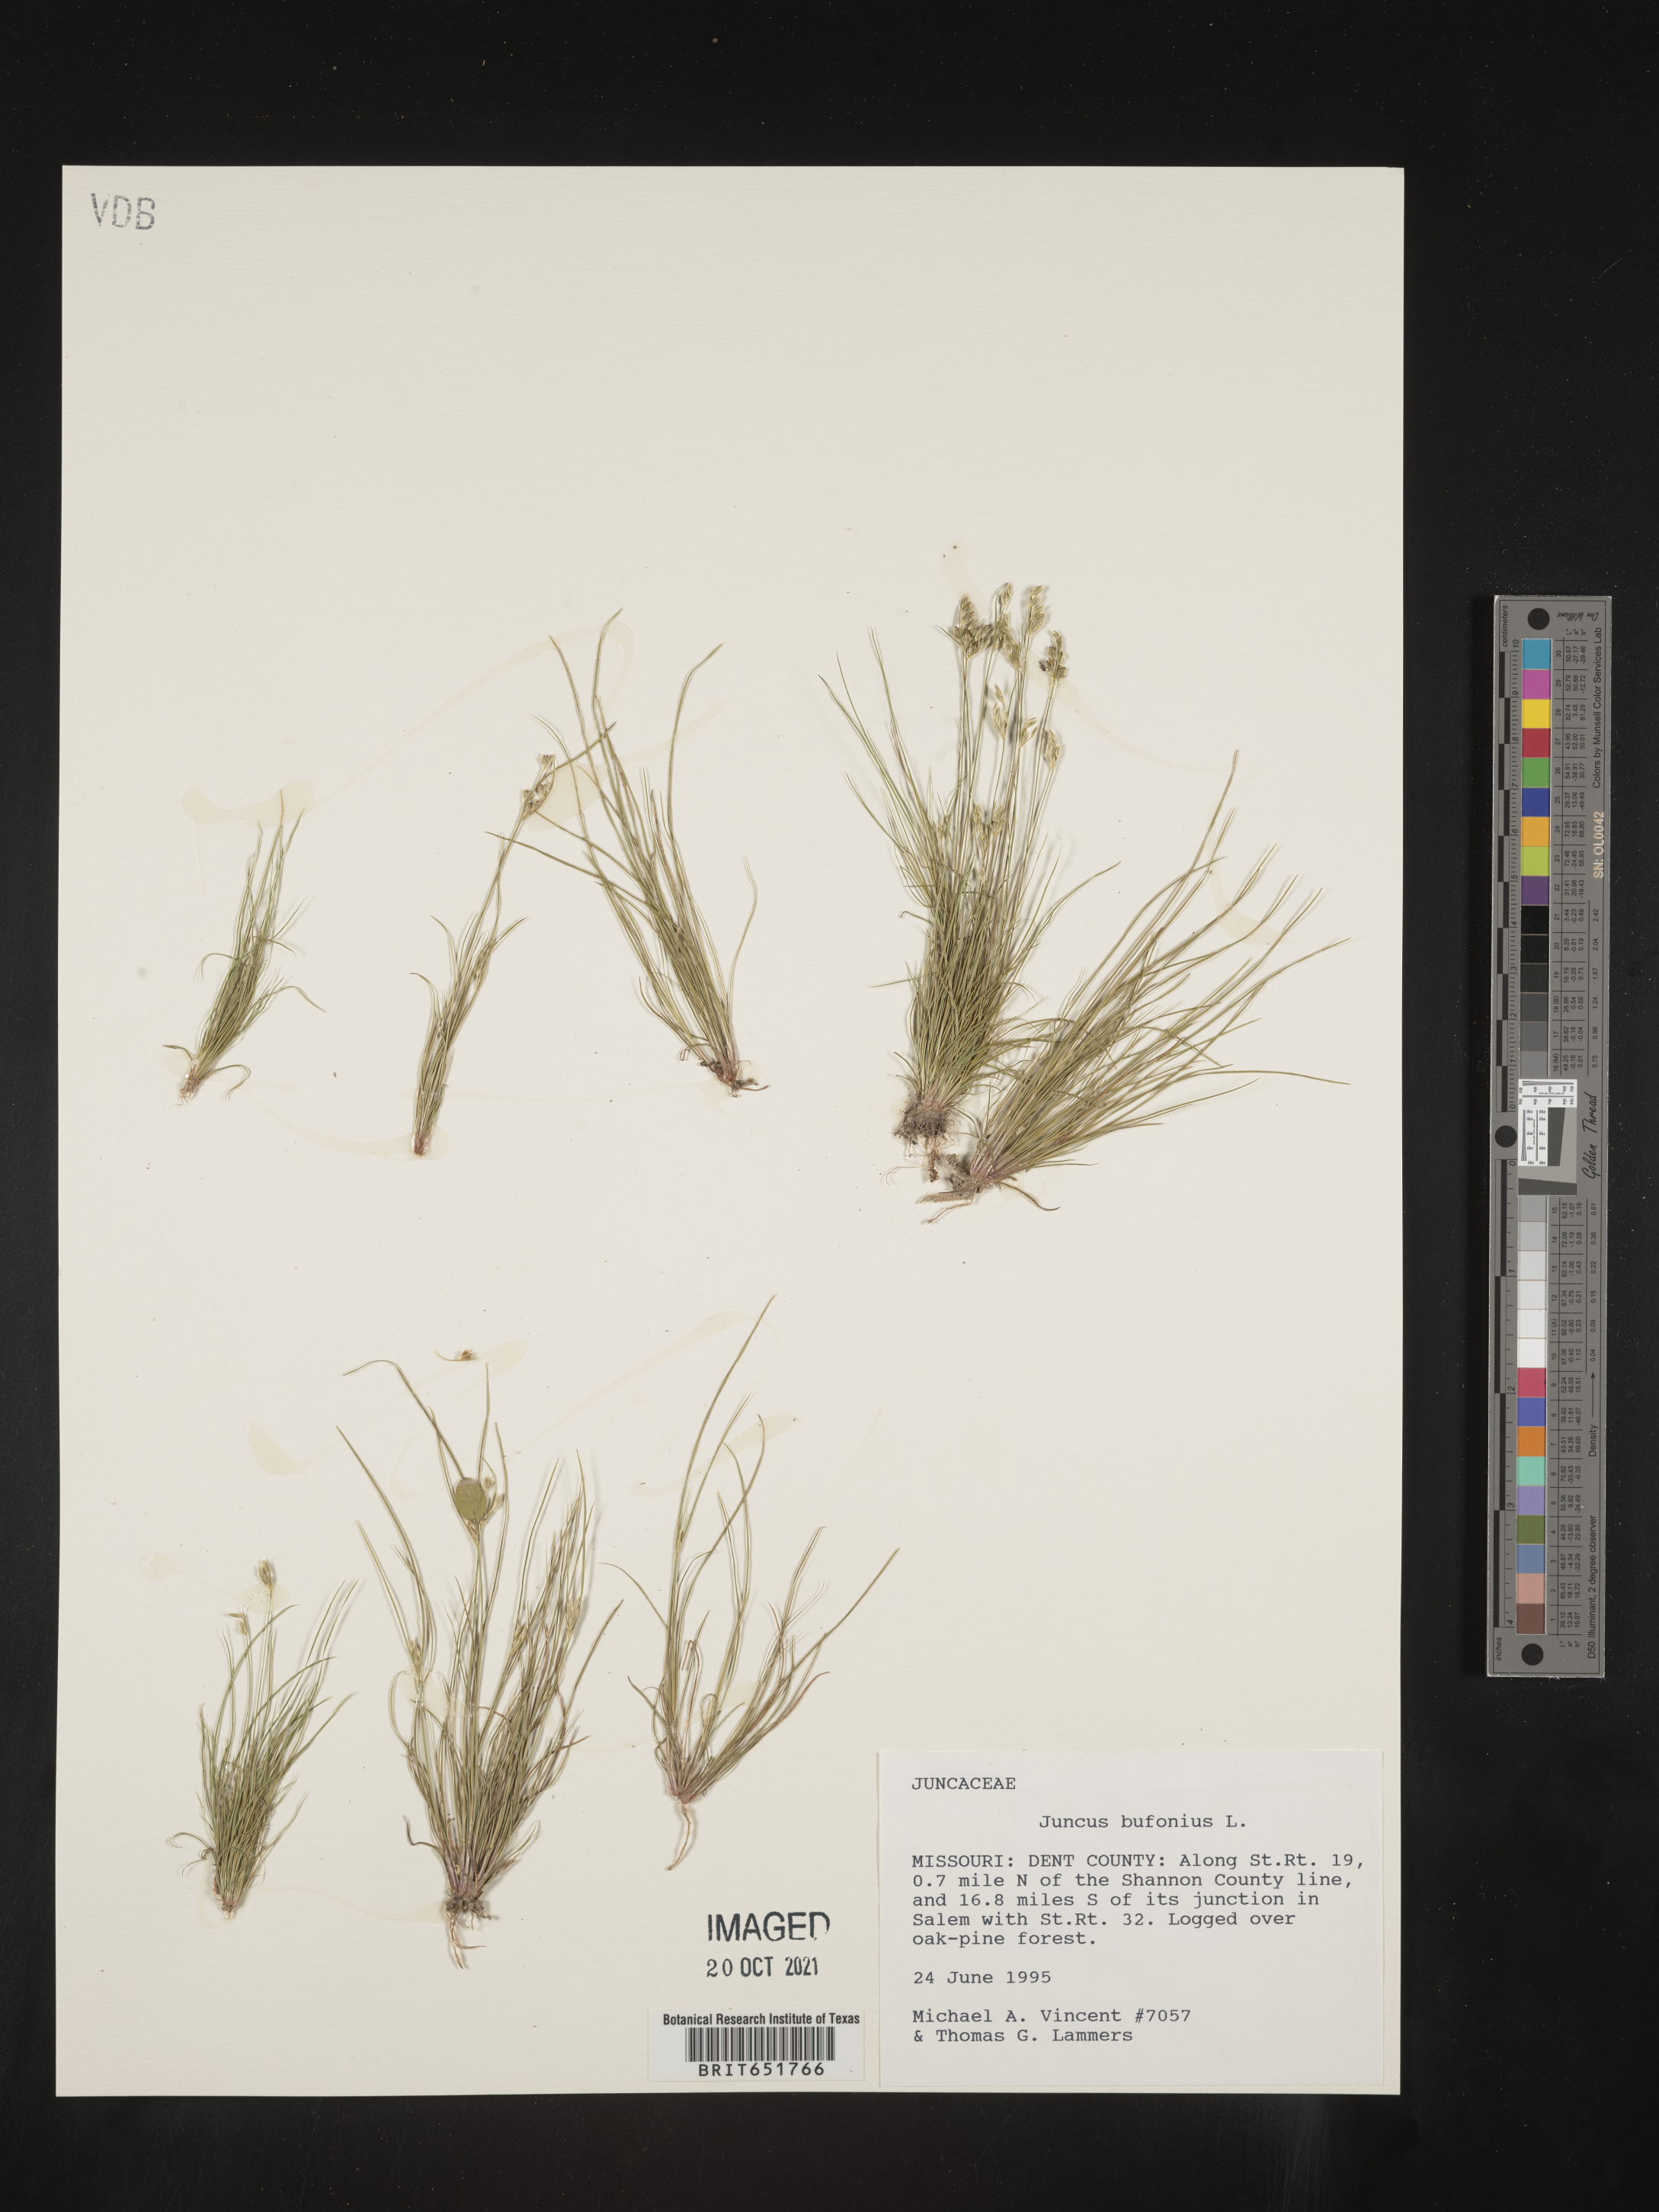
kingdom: Plantae
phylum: Tracheophyta
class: Liliopsida
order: Poales
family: Juncaceae
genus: Juncus
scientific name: Juncus bufonius
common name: Toad rush
